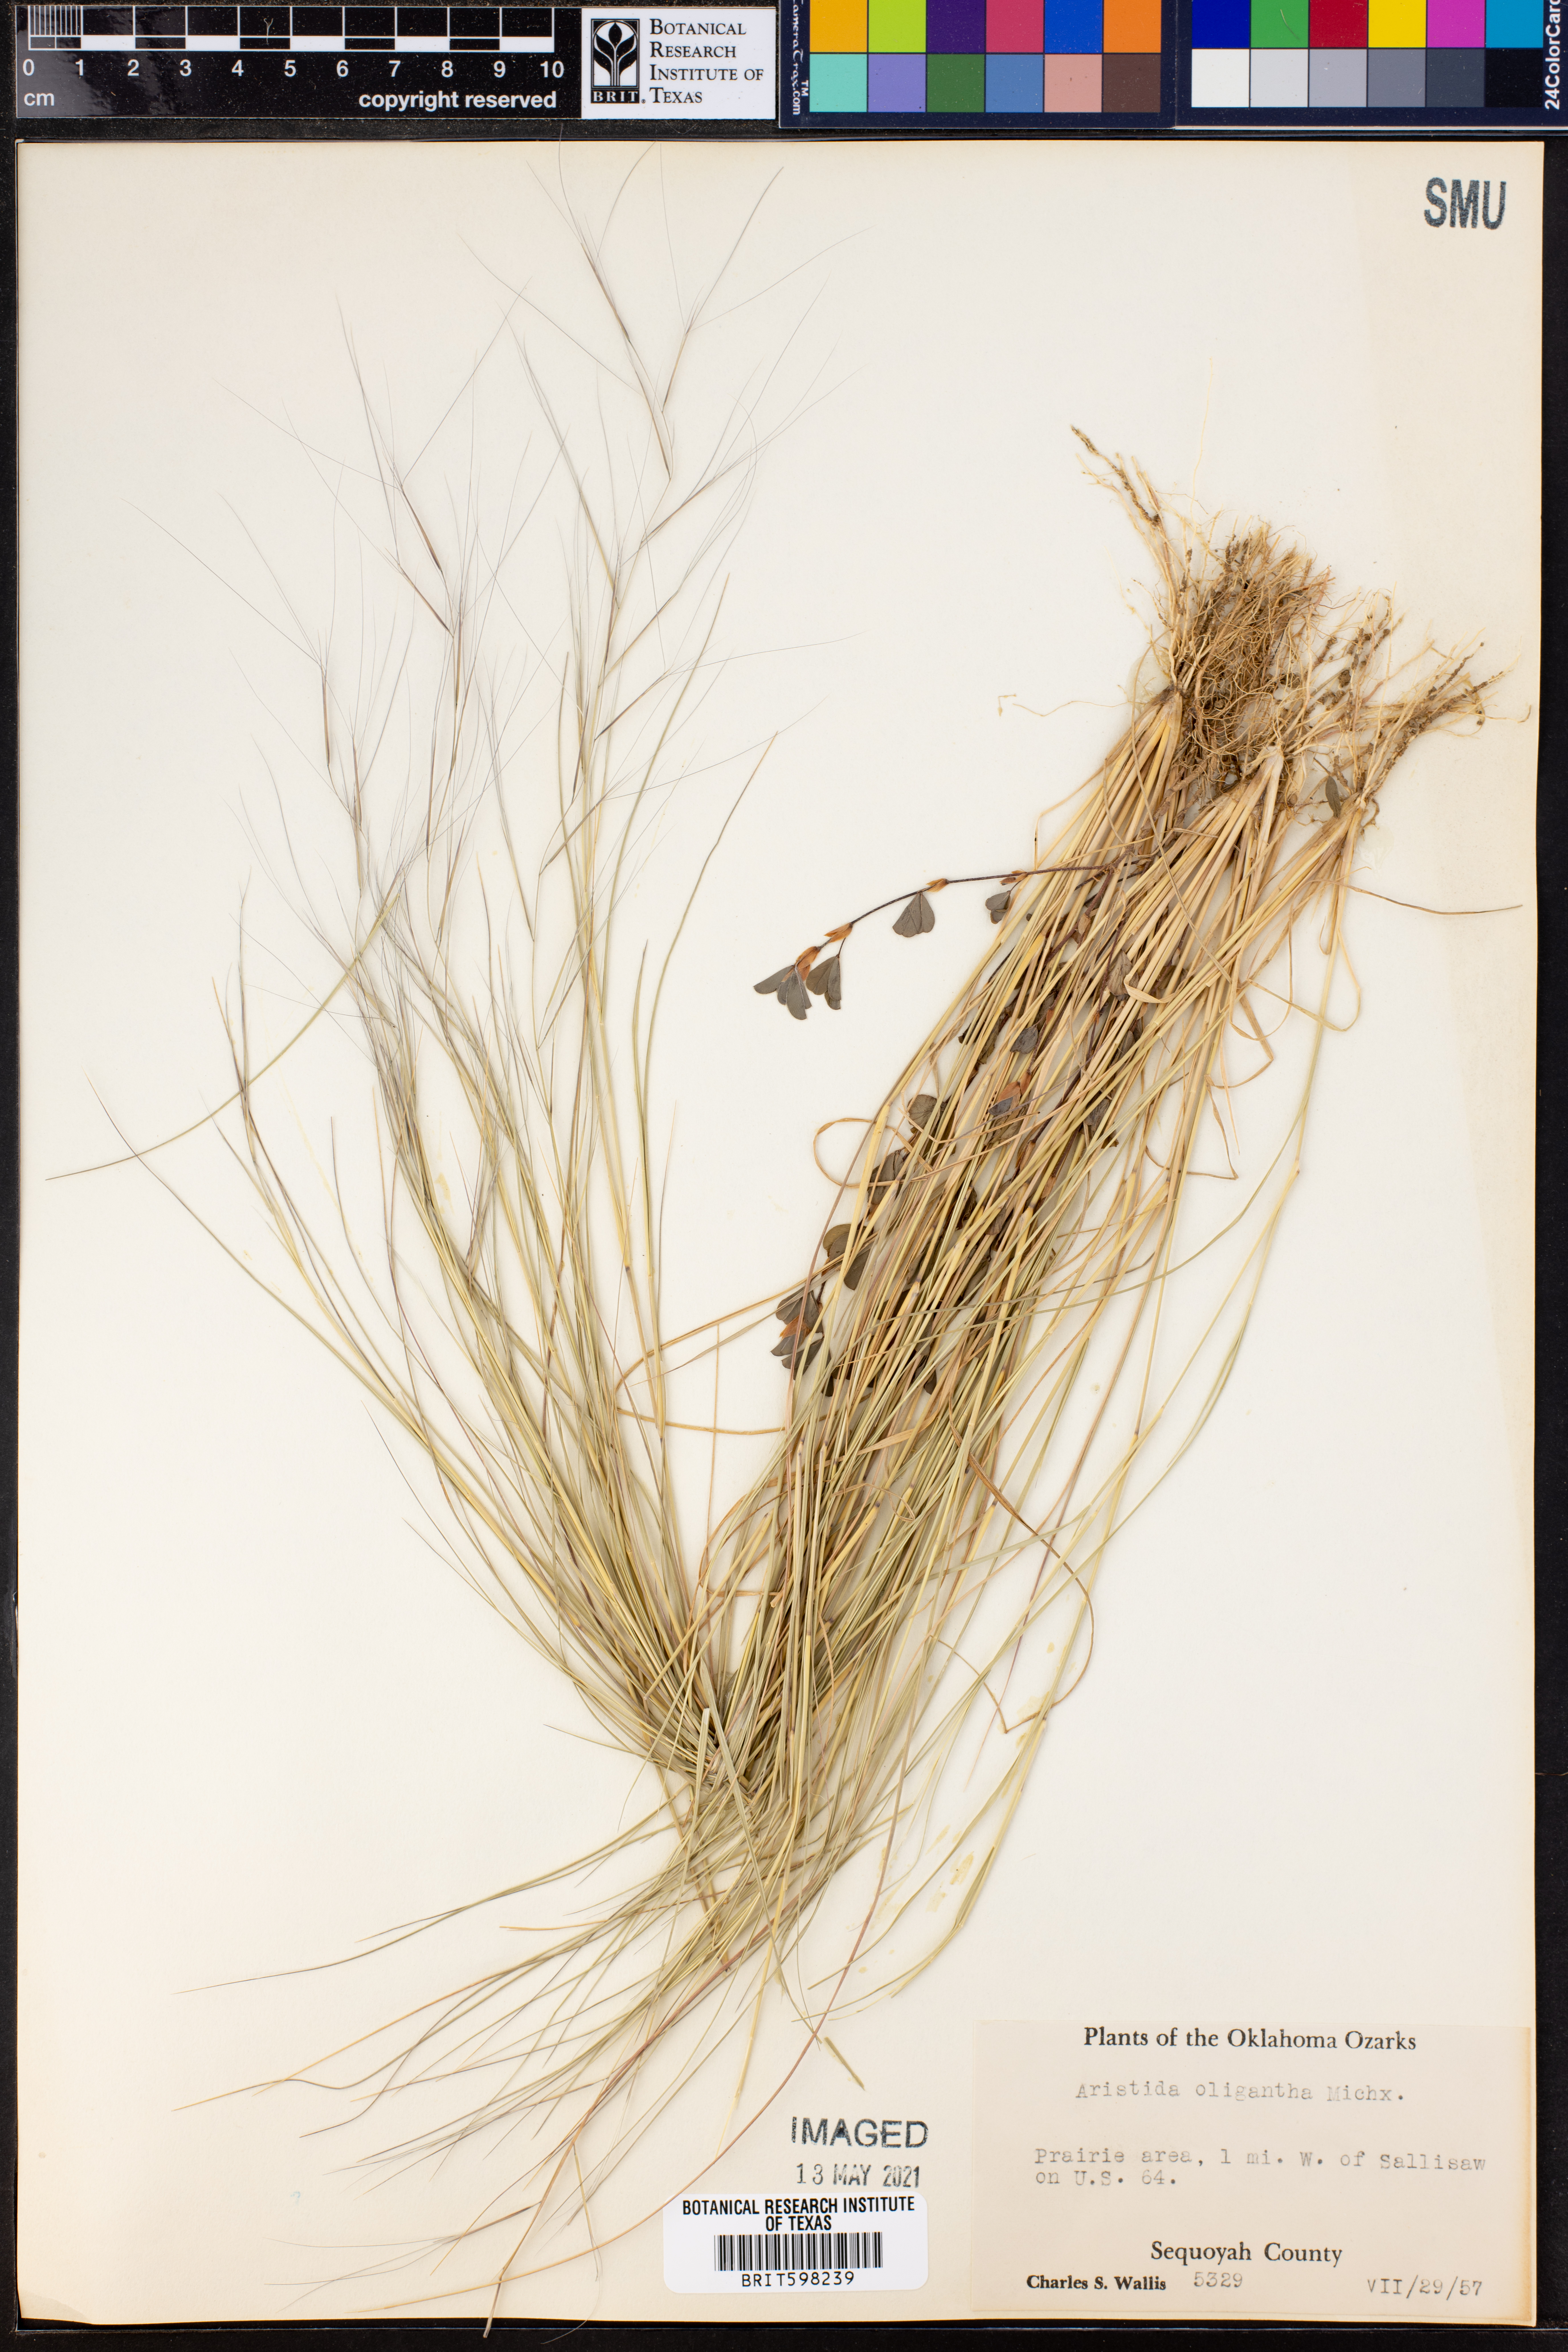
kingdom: Plantae
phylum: Tracheophyta
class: Liliopsida
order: Poales
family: Poaceae
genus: Aristida
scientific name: Aristida oligantha
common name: Few-flowered aristida
